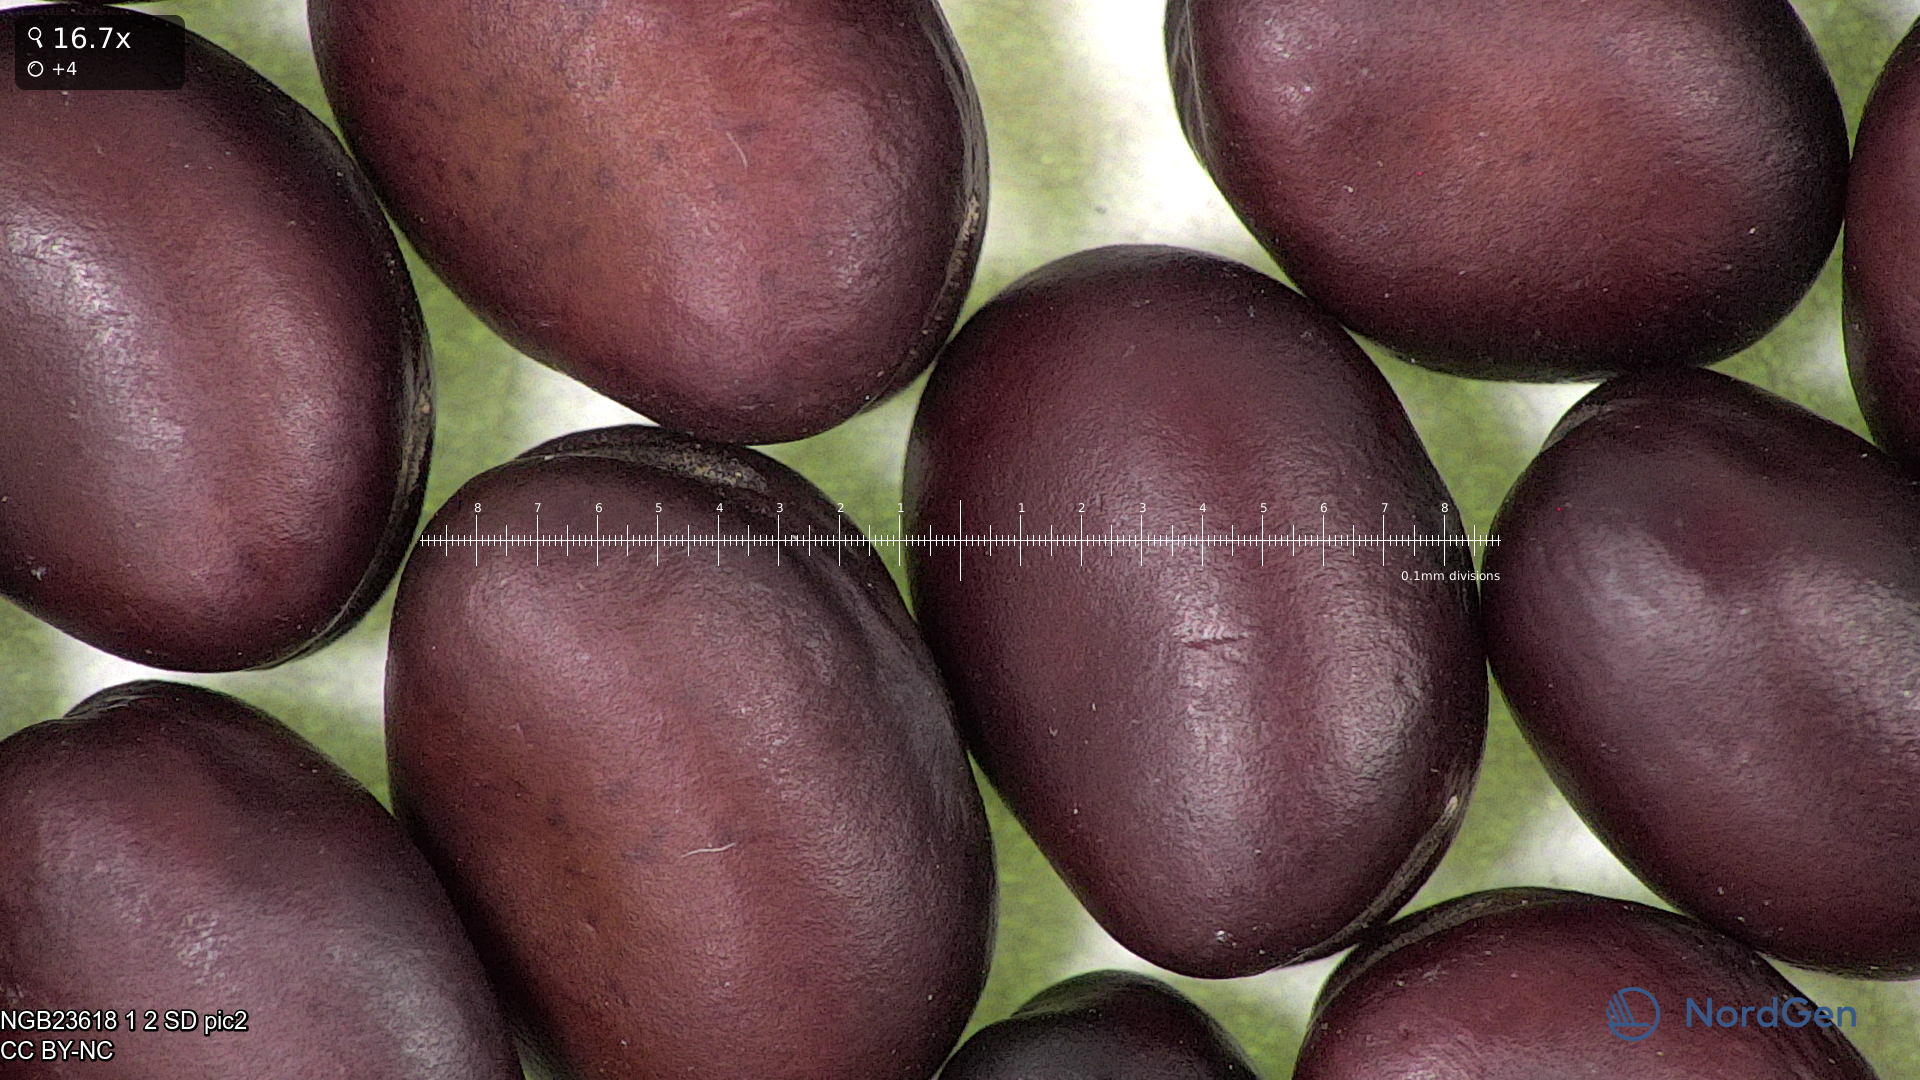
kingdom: Plantae
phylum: Tracheophyta
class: Magnoliopsida
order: Fabales
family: Fabaceae
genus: Vicia
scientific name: Vicia faba
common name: Broad bean
